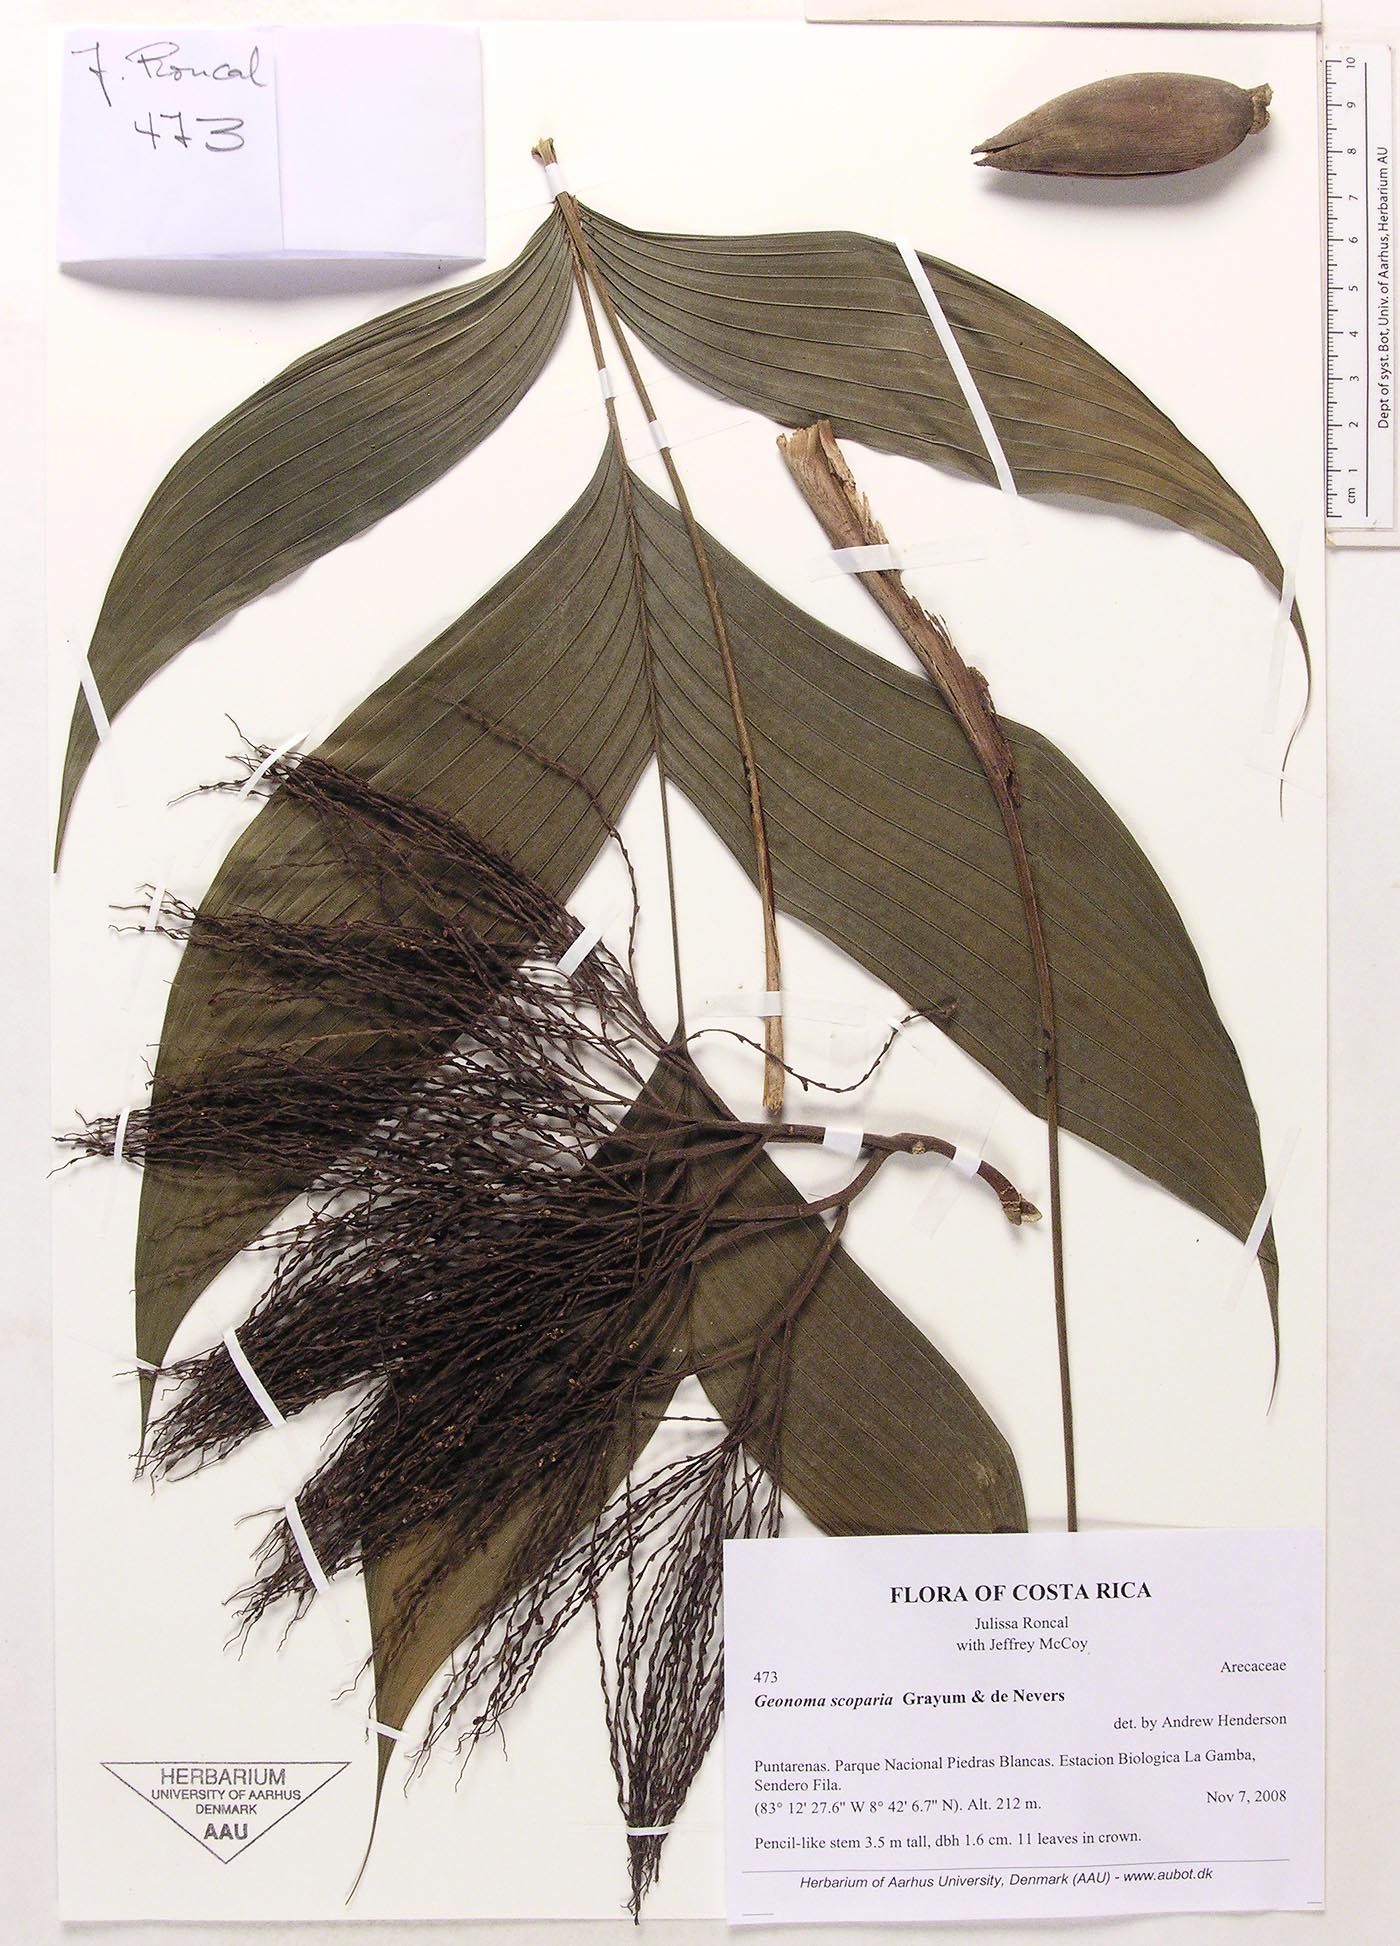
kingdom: Plantae
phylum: Tracheophyta
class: Liliopsida
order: Arecales
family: Arecaceae
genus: Geonoma
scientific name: Geonoma scoparia
